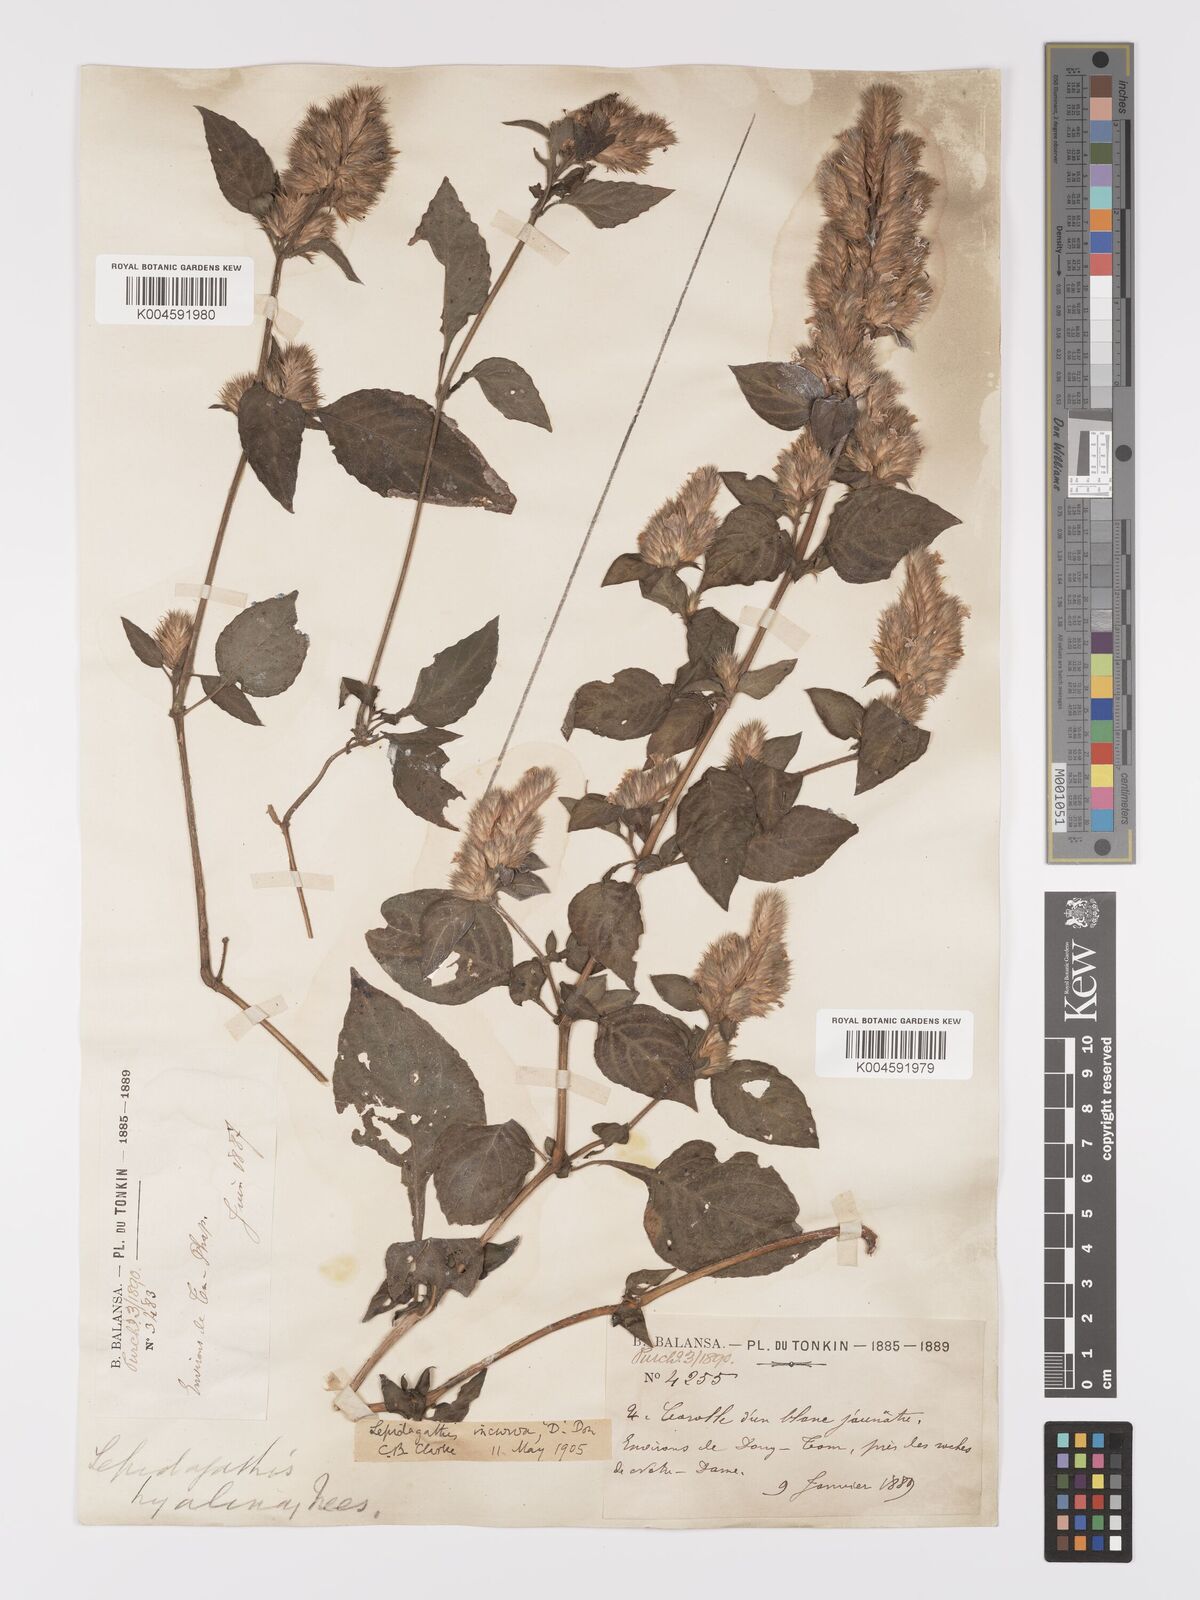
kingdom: Plantae
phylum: Tracheophyta
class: Magnoliopsida
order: Lamiales
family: Acanthaceae
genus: Lepidagathis
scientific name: Lepidagathis incurva
